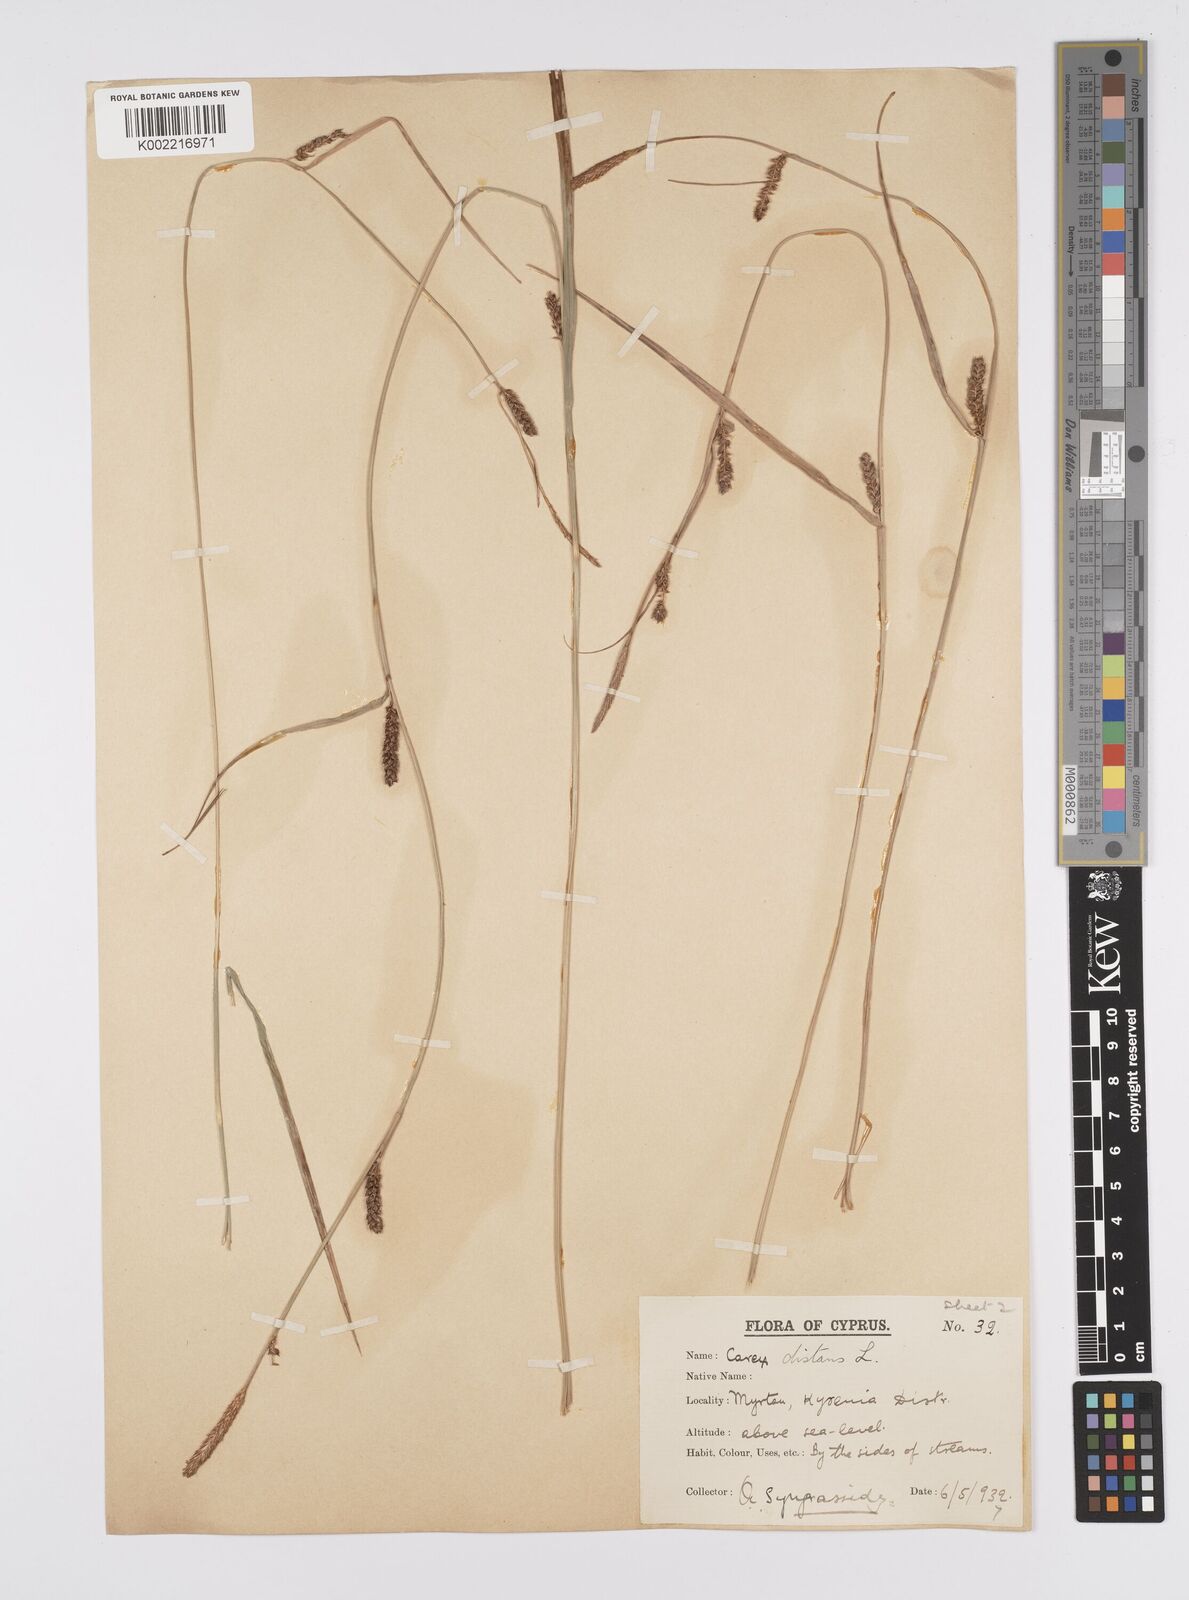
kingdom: Plantae
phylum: Tracheophyta
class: Liliopsida
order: Poales
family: Cyperaceae
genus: Carex
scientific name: Carex distans
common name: Distant sedge
